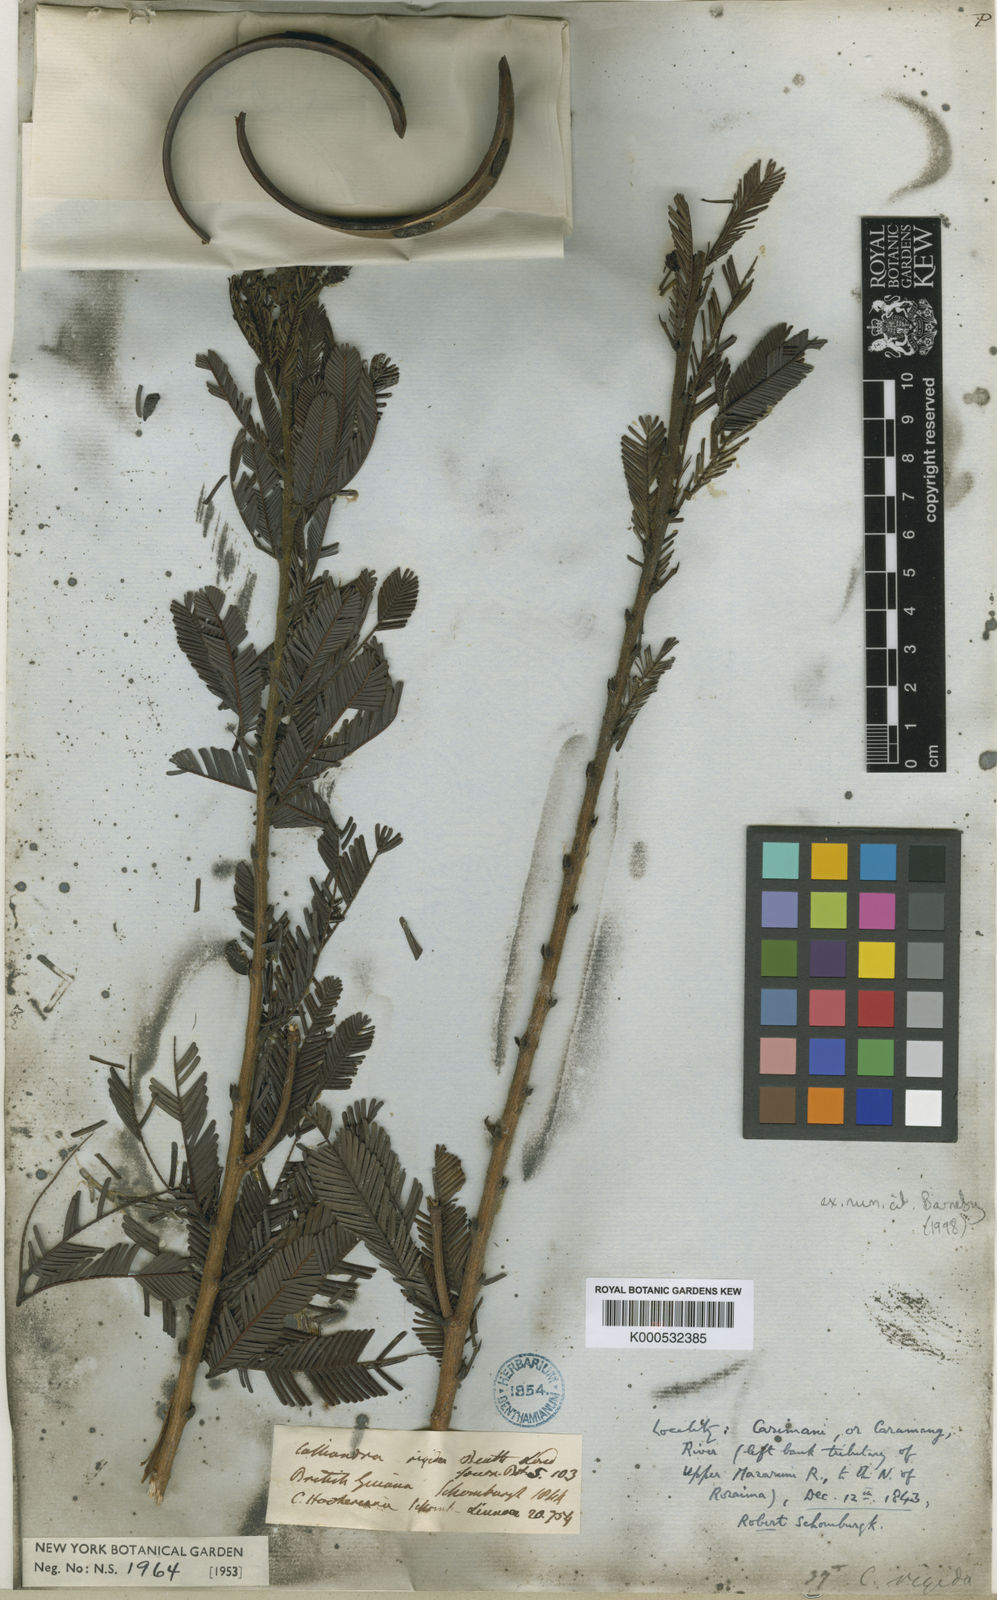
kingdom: Plantae
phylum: Tracheophyta
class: Magnoliopsida
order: Fabales
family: Fabaceae
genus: Calliandra
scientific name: Calliandra rigida
